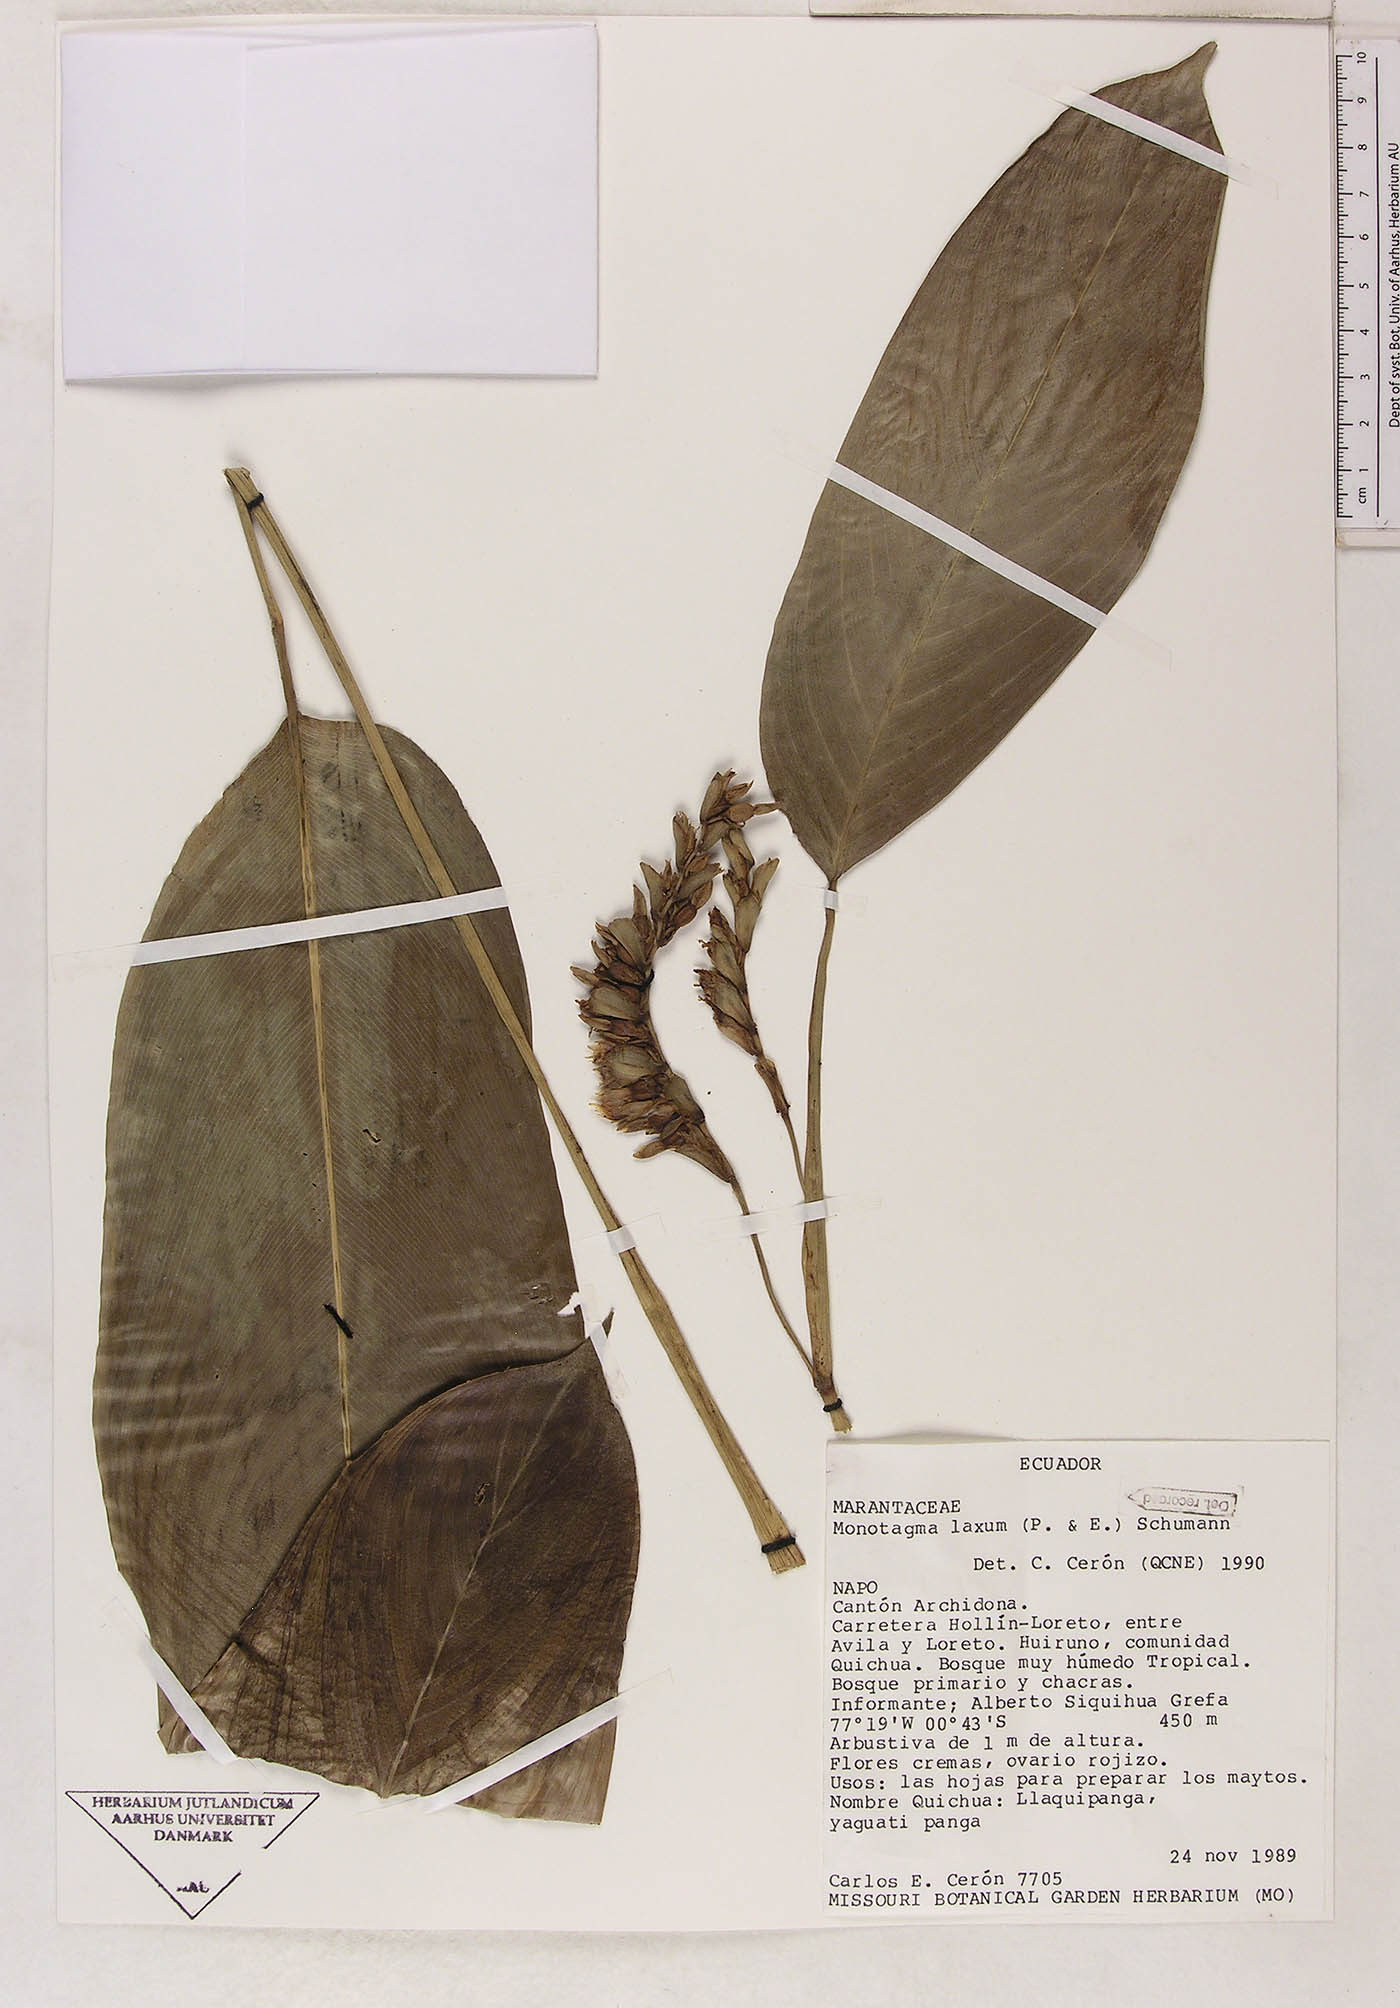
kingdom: Plantae
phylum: Tracheophyta
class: Liliopsida
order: Zingiberales
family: Marantaceae
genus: Monotagma
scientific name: Monotagma laxum
